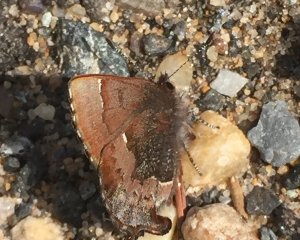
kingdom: Animalia
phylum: Arthropoda
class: Insecta
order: Lepidoptera
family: Lycaenidae
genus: Incisalia
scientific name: Incisalia henrici
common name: Henry's Elfin
